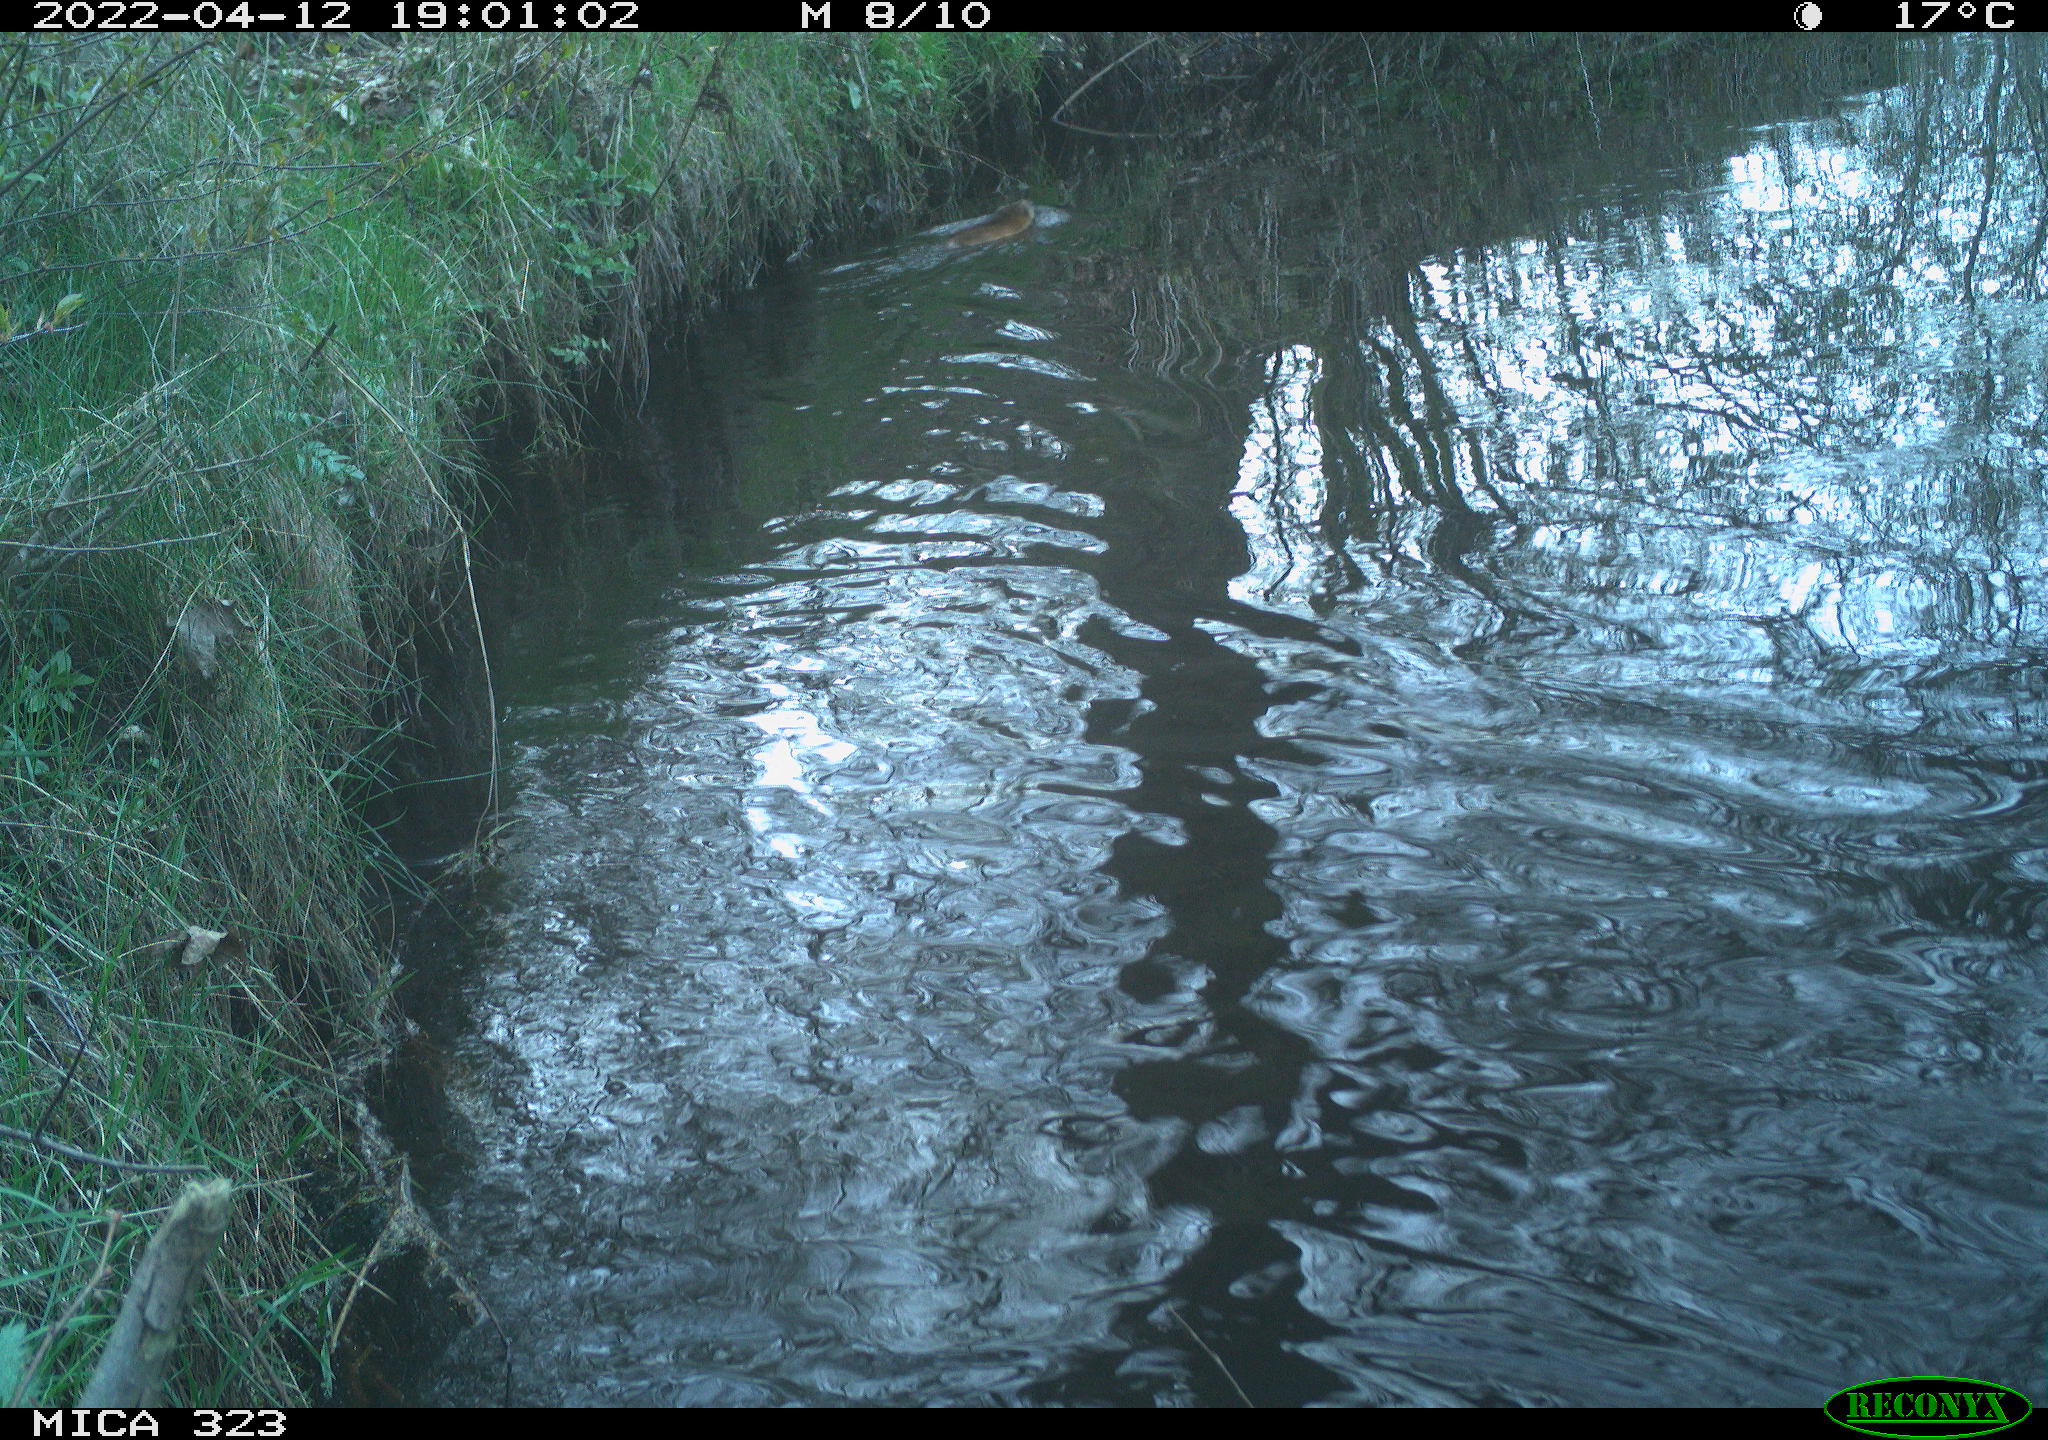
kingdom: Animalia
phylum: Chordata
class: Mammalia
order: Rodentia
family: Cricetidae
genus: Ondatra
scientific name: Ondatra zibethicus
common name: Muskrat
